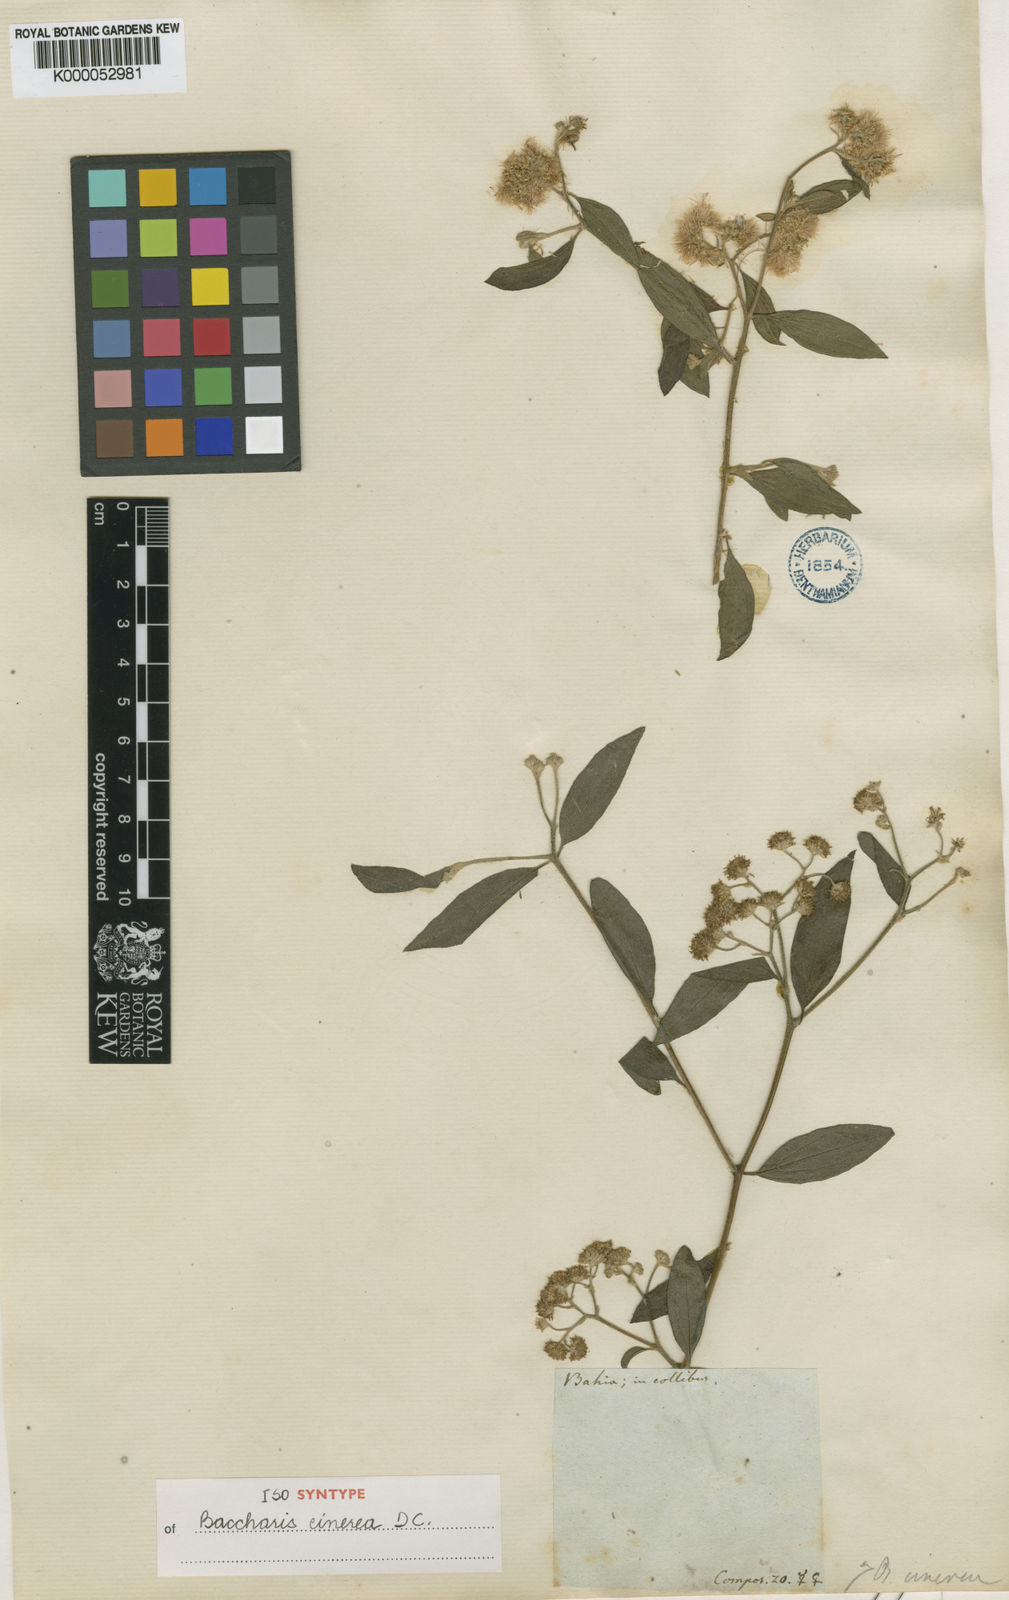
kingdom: Plantae
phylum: Tracheophyta
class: Magnoliopsida
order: Asterales
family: Asteraceae
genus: Baccharis
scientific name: Baccharis trinervis
